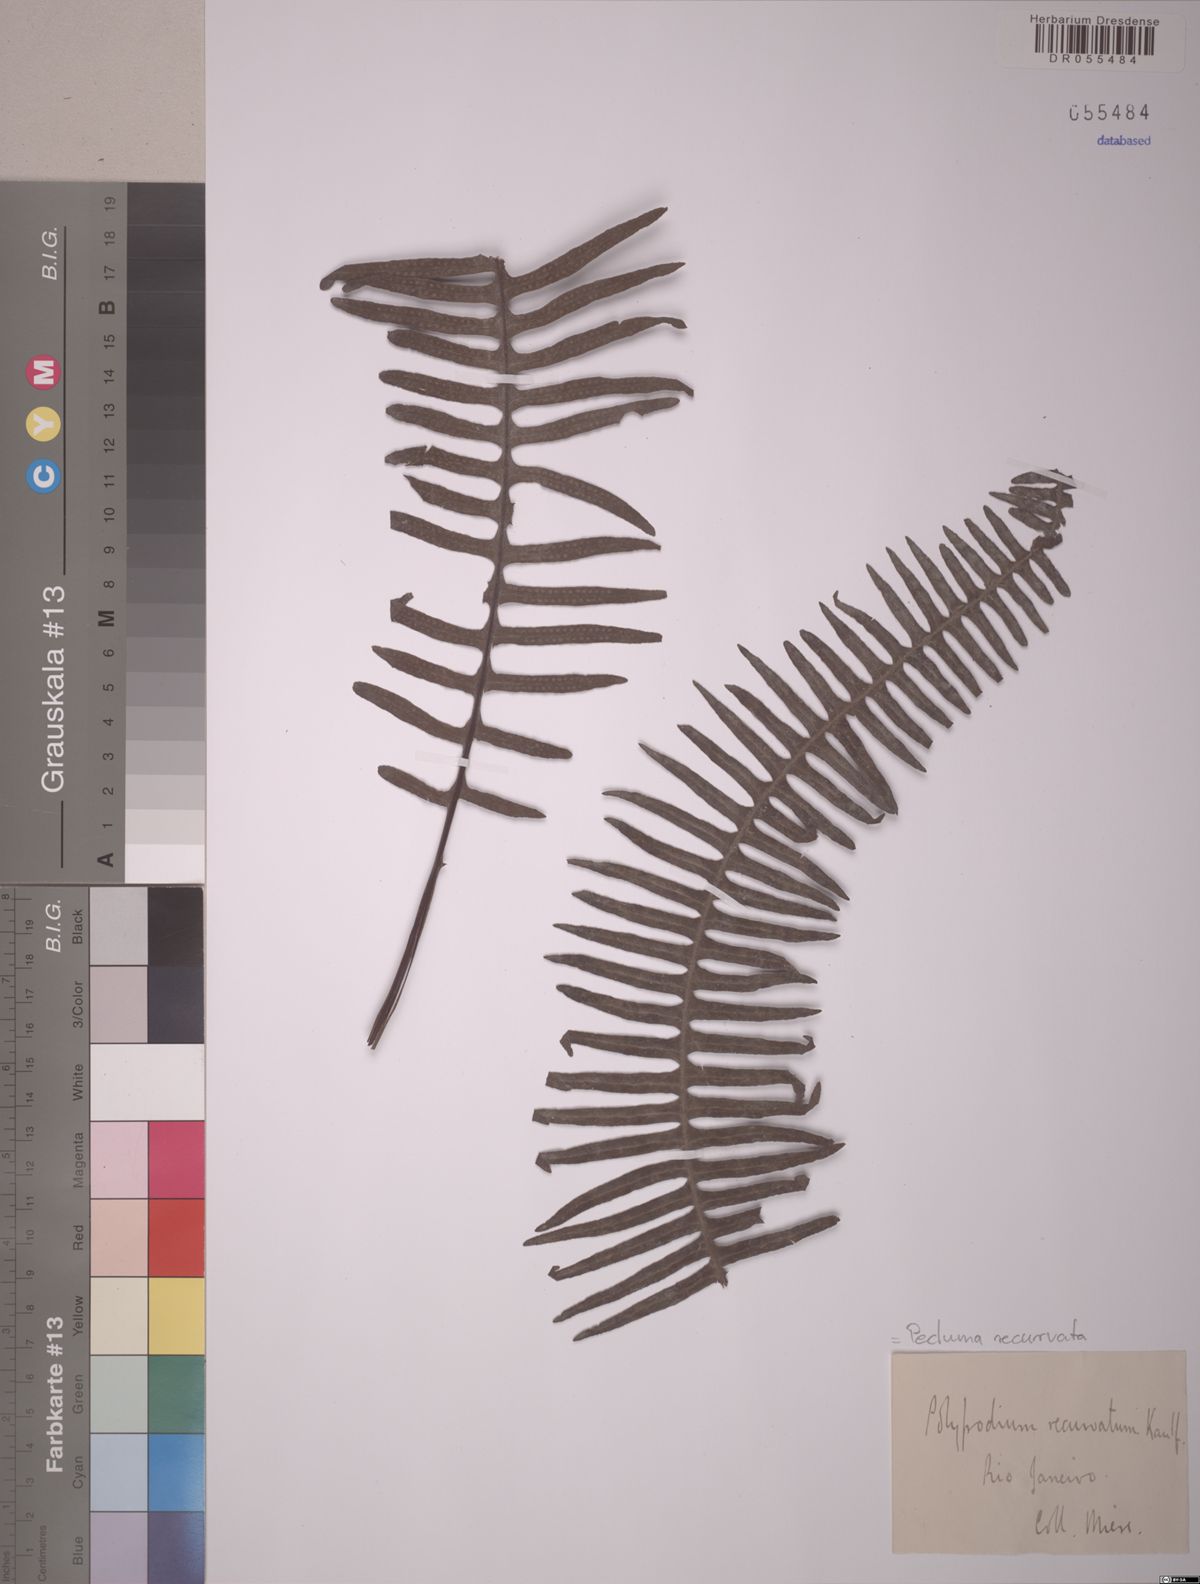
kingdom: Plantae
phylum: Tracheophyta
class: Polypodiopsida
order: Polypodiales
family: Polypodiaceae
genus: Pecluma
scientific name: Pecluma recurvata
